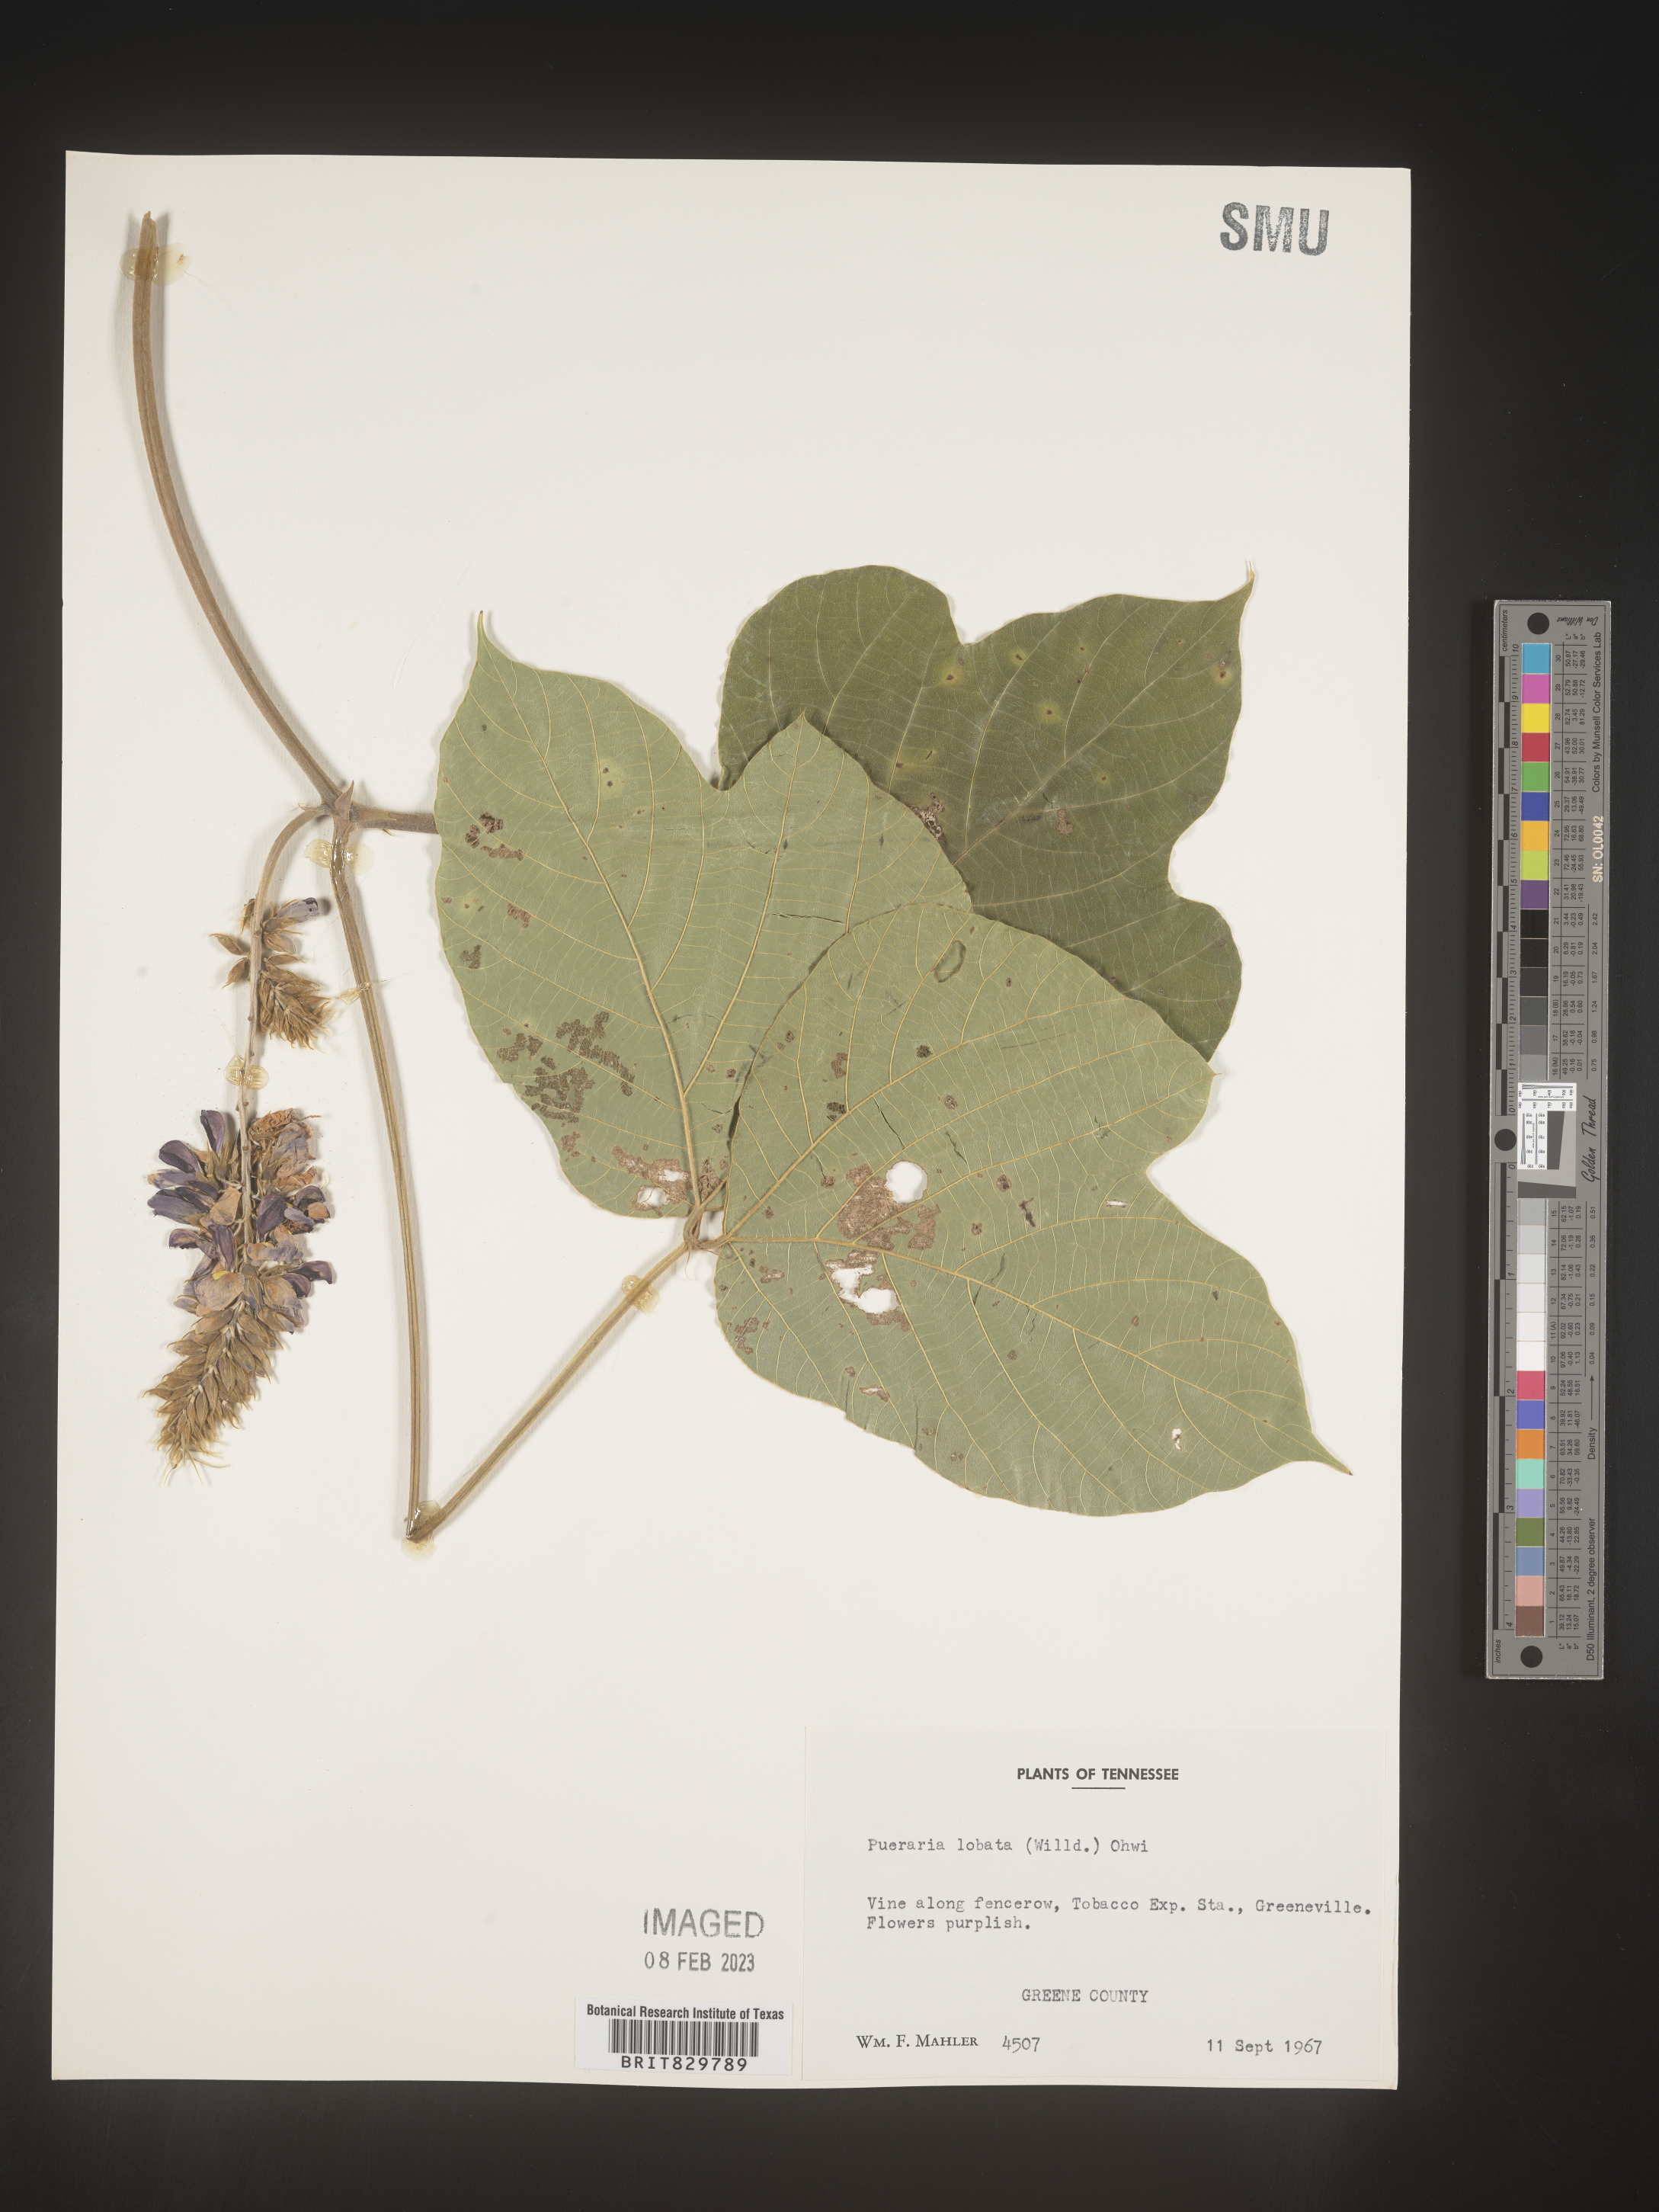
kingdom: Plantae
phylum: Tracheophyta
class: Magnoliopsida
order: Fabales
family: Fabaceae
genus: Pueraria
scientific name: Pueraria montana
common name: Kudzu
